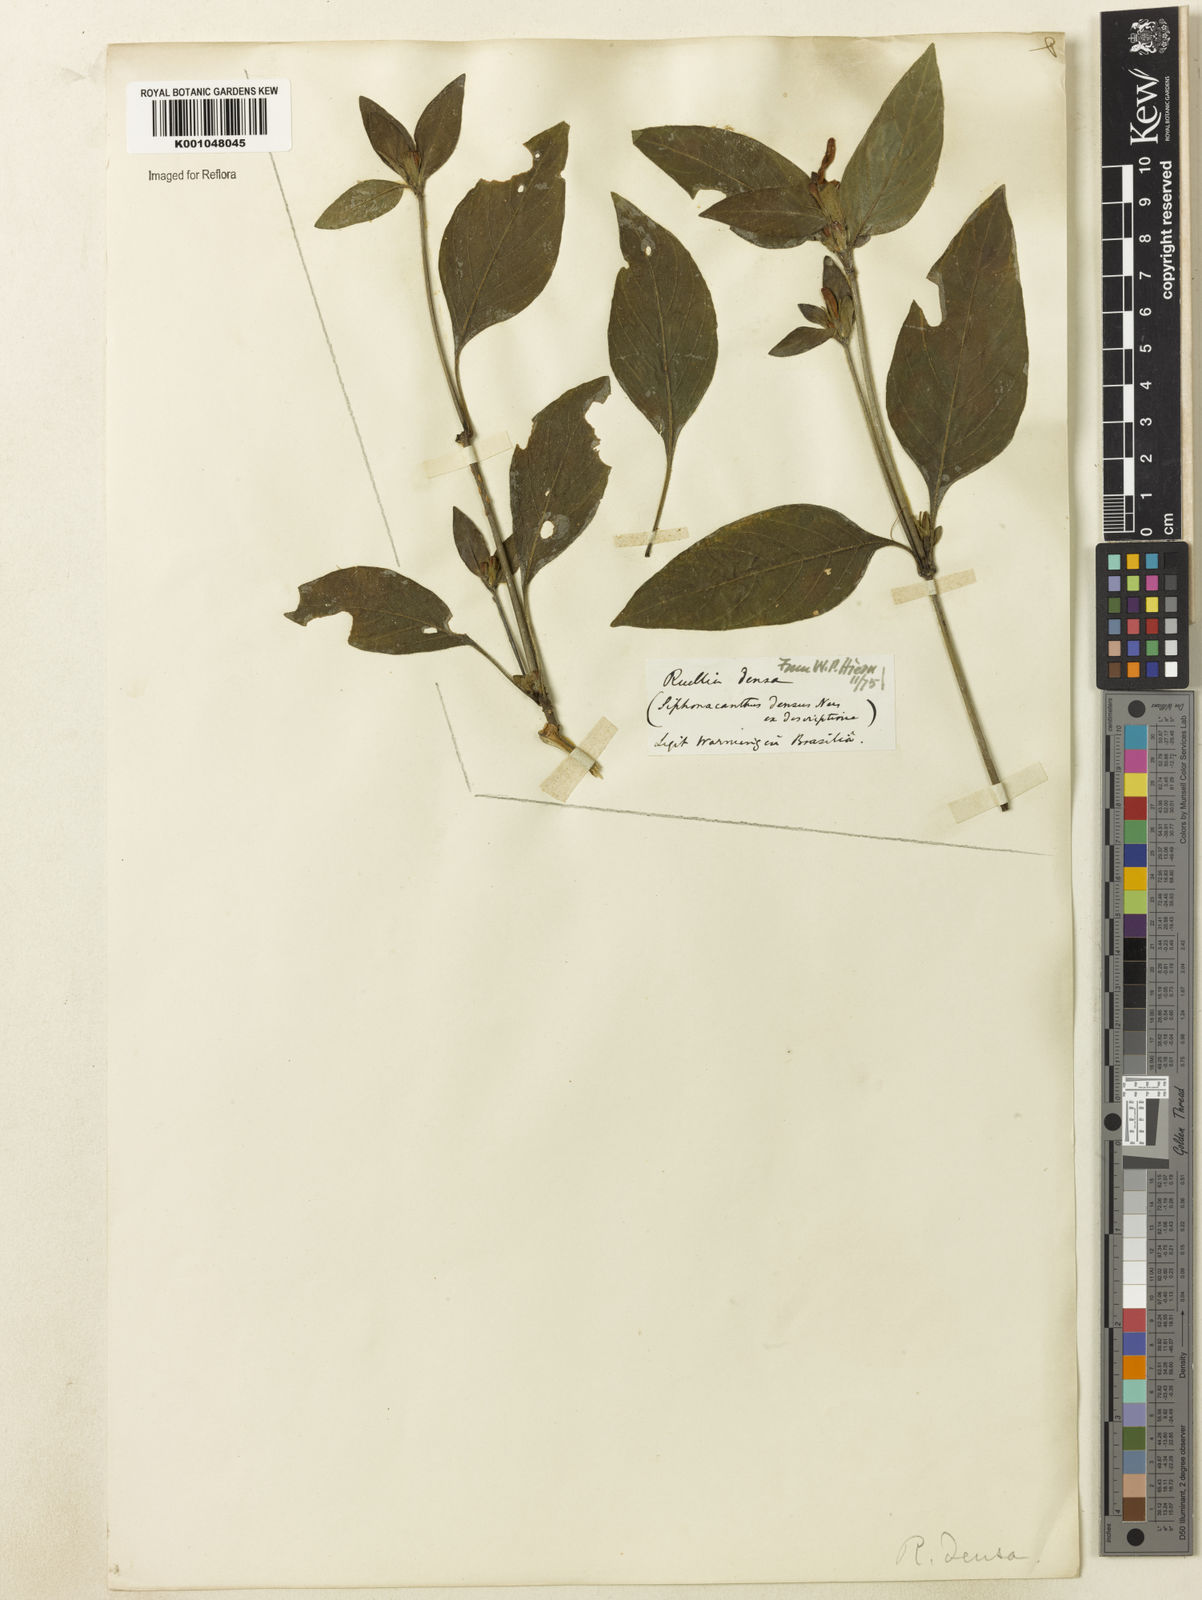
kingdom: Plantae
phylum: Tracheophyta
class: Magnoliopsida
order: Lamiales
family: Acanthaceae
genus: Ruellia
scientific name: Ruellia densa
